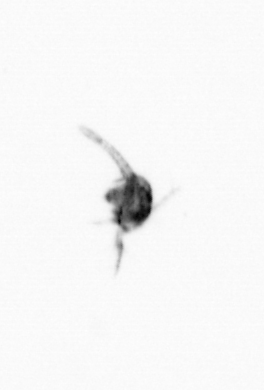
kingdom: Animalia
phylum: Arthropoda
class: Copepoda
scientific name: Copepoda
